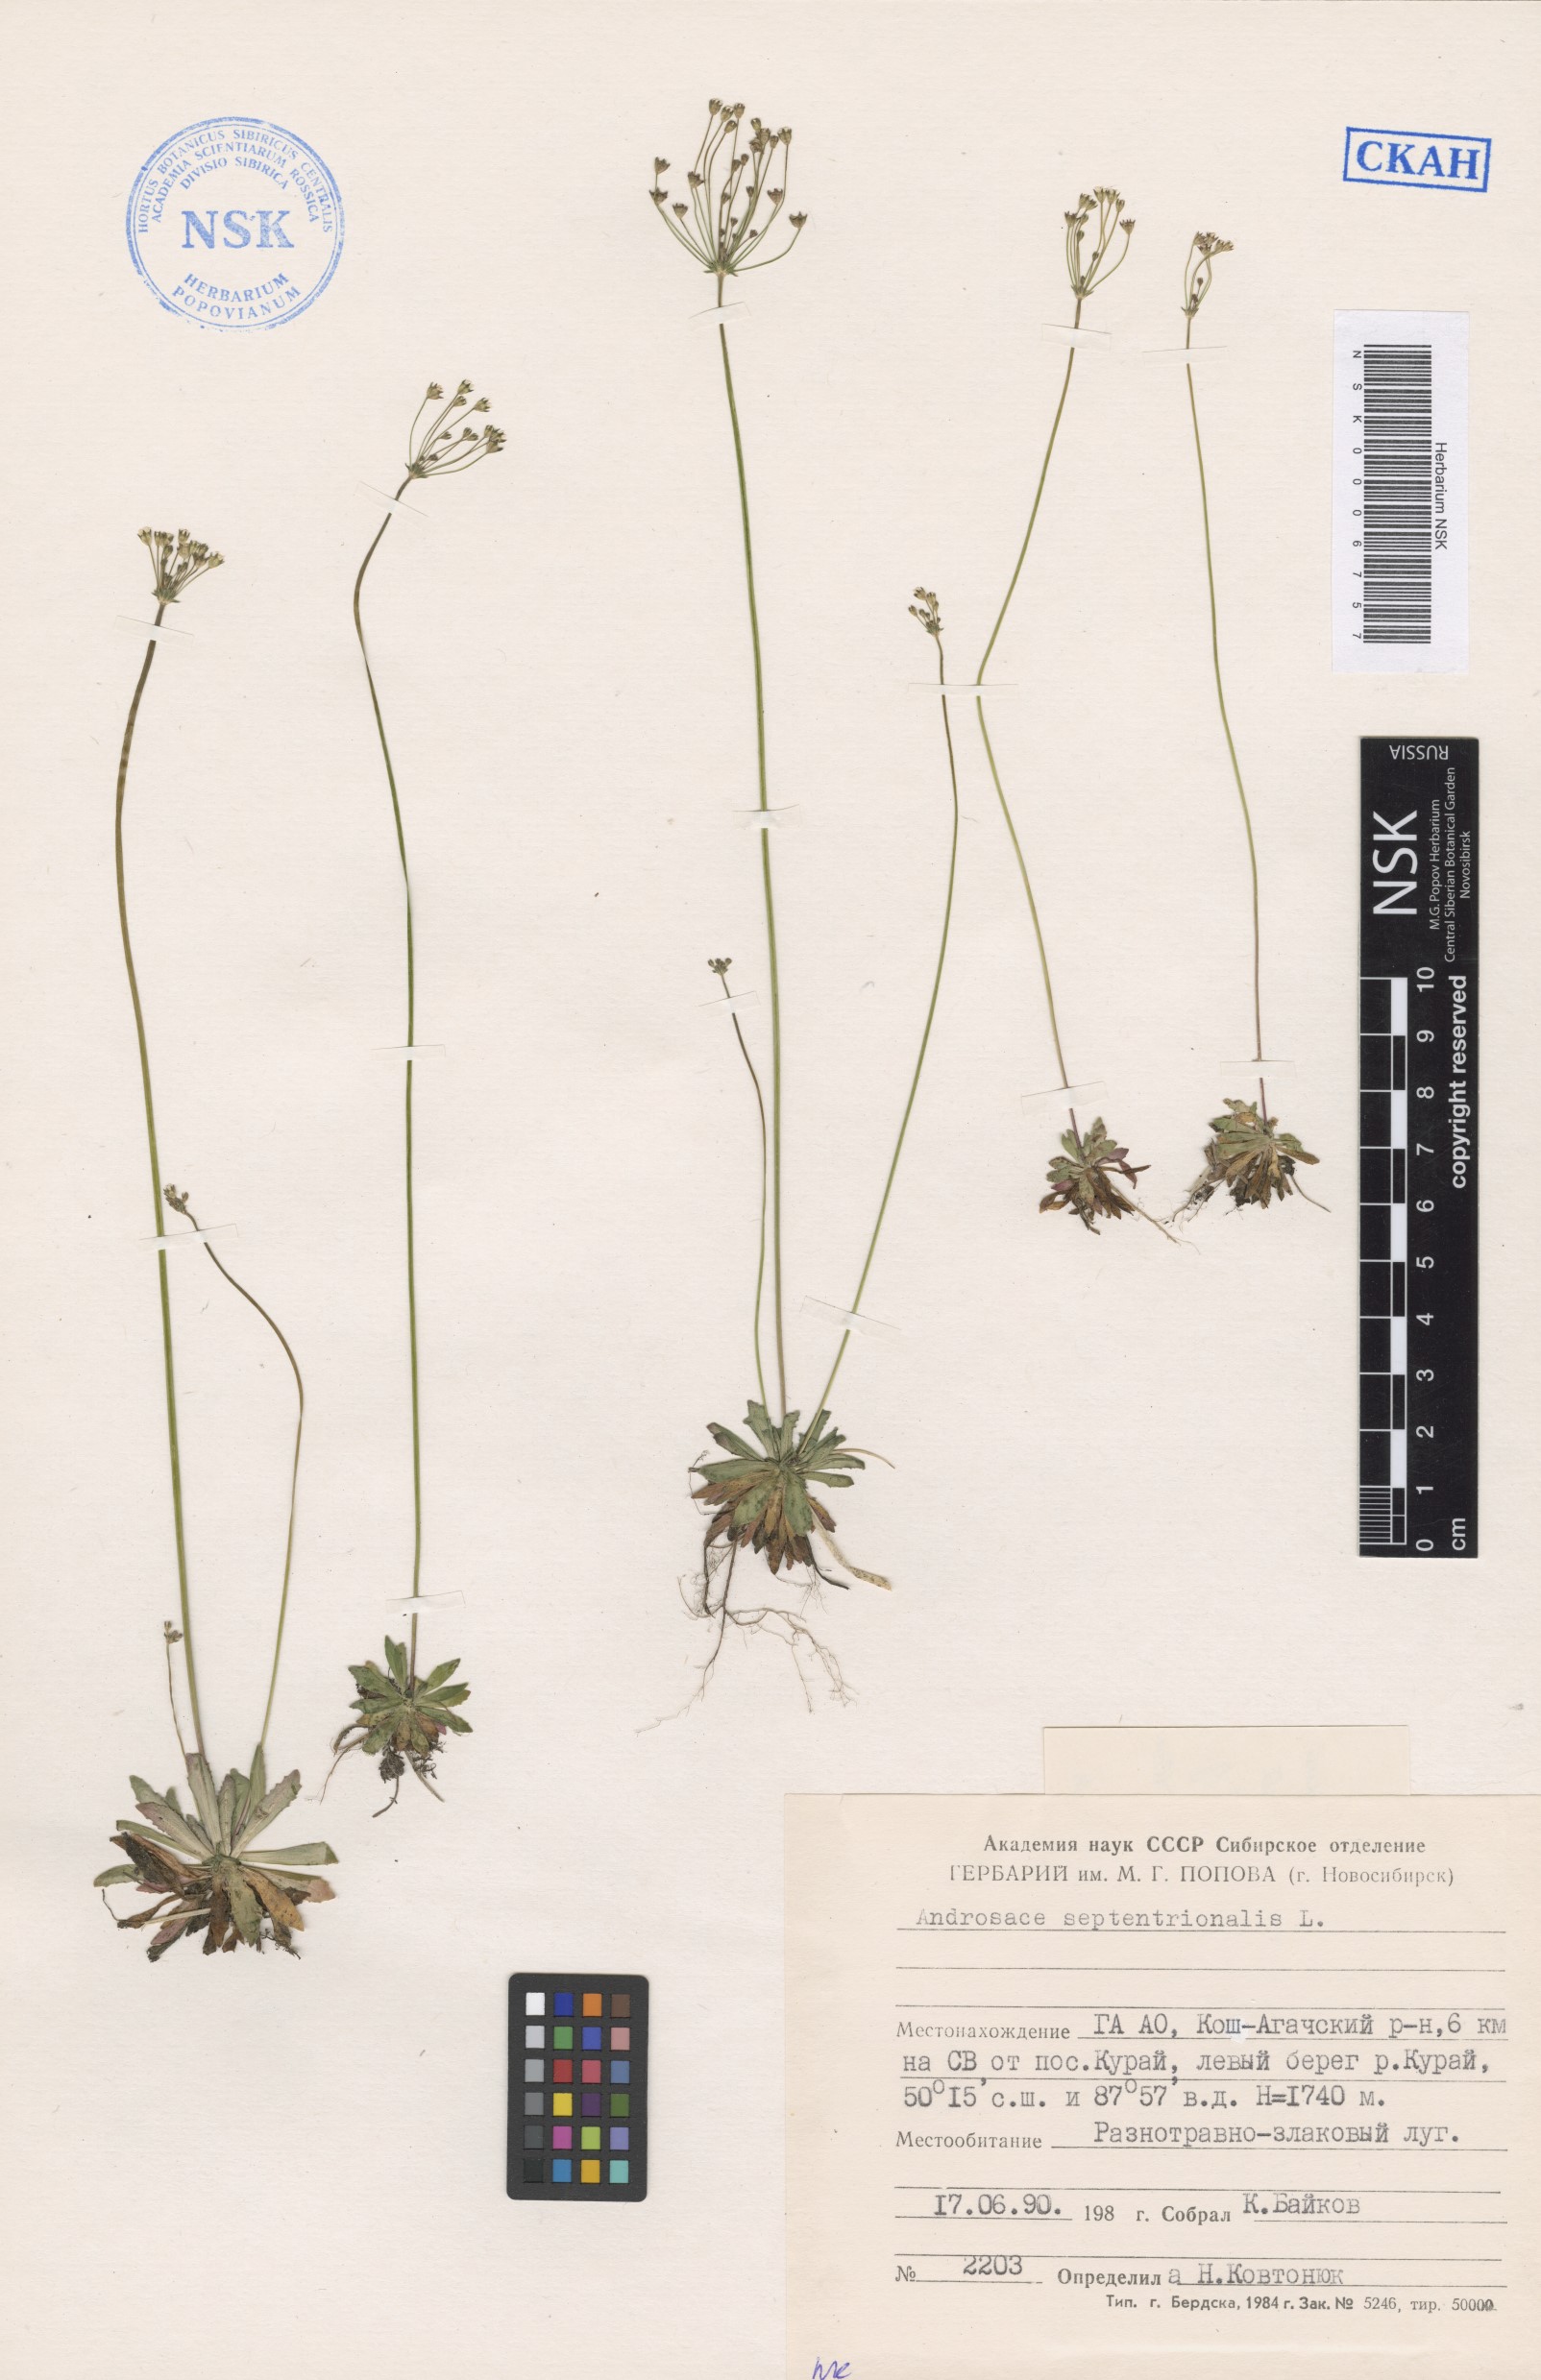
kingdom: Plantae
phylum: Tracheophyta
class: Magnoliopsida
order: Ericales
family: Primulaceae
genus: Androsace
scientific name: Androsace septentrionalis
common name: Hairy northern fairy-candelabra
